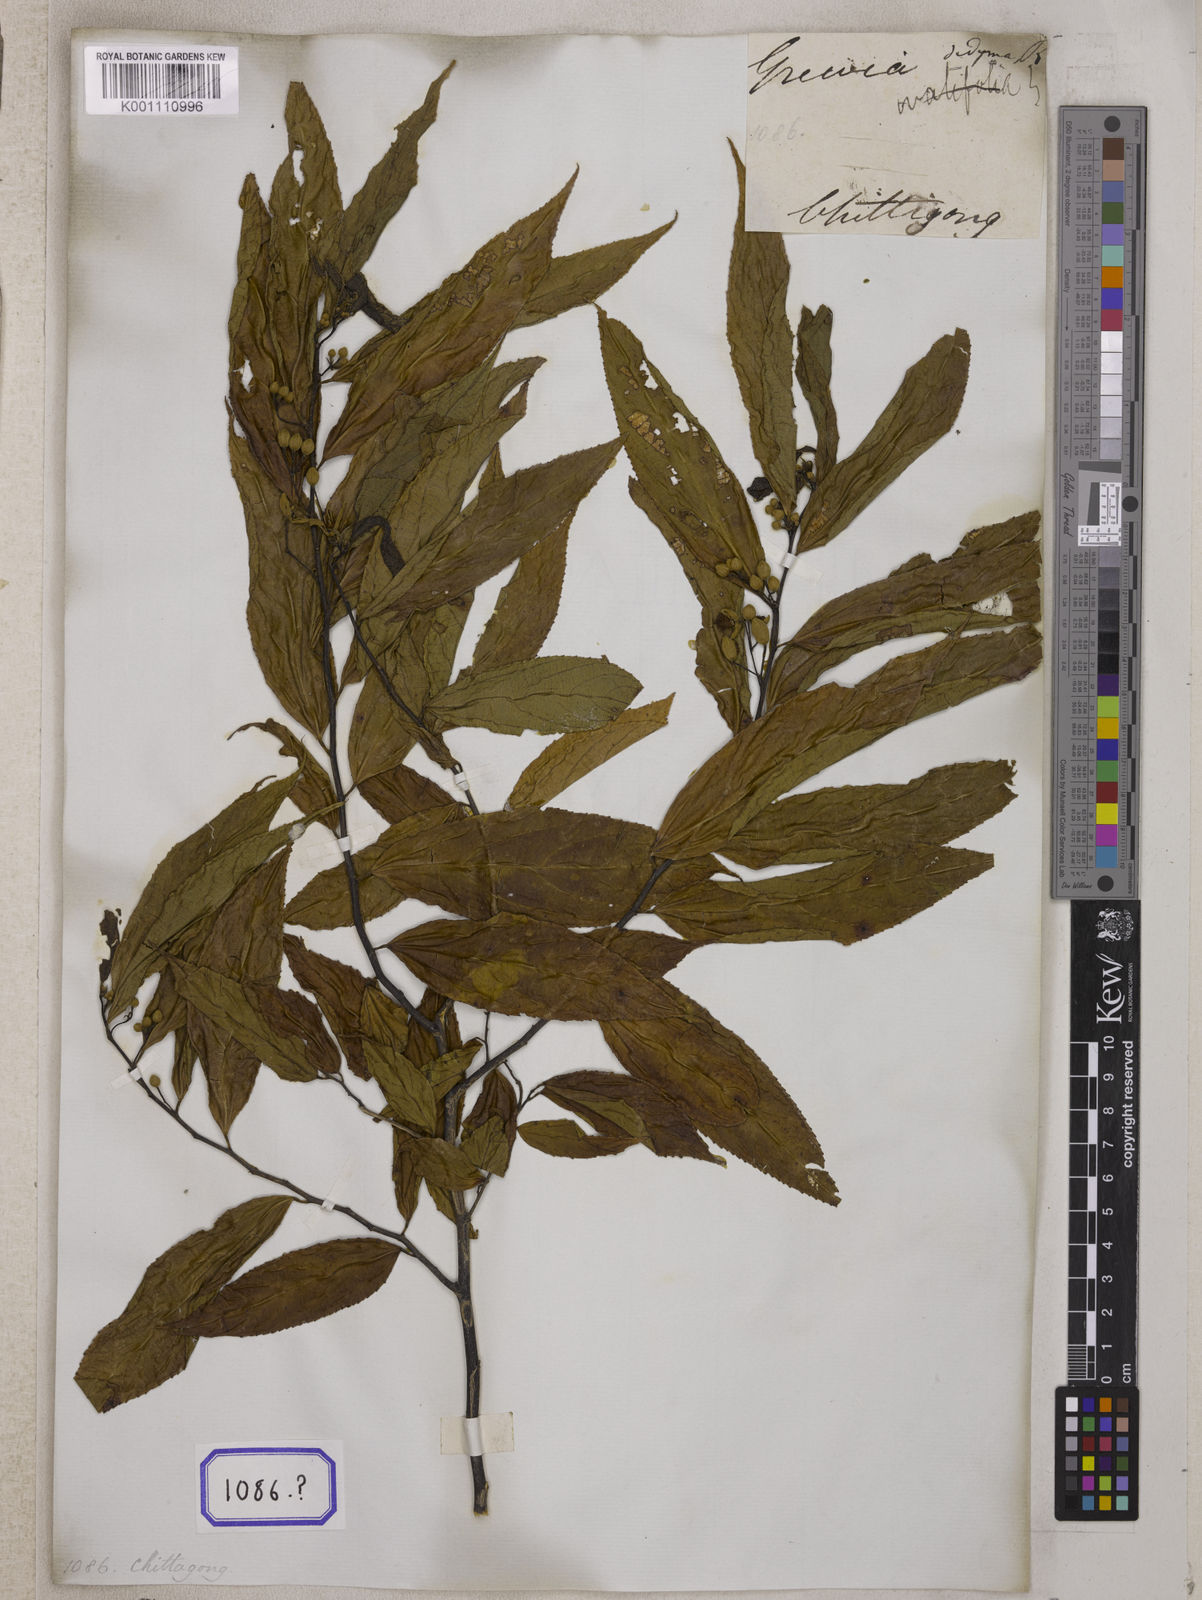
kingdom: Plantae
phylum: Tracheophyta
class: Magnoliopsida
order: Malvales
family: Malvaceae
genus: Grewia
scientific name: Grewia
